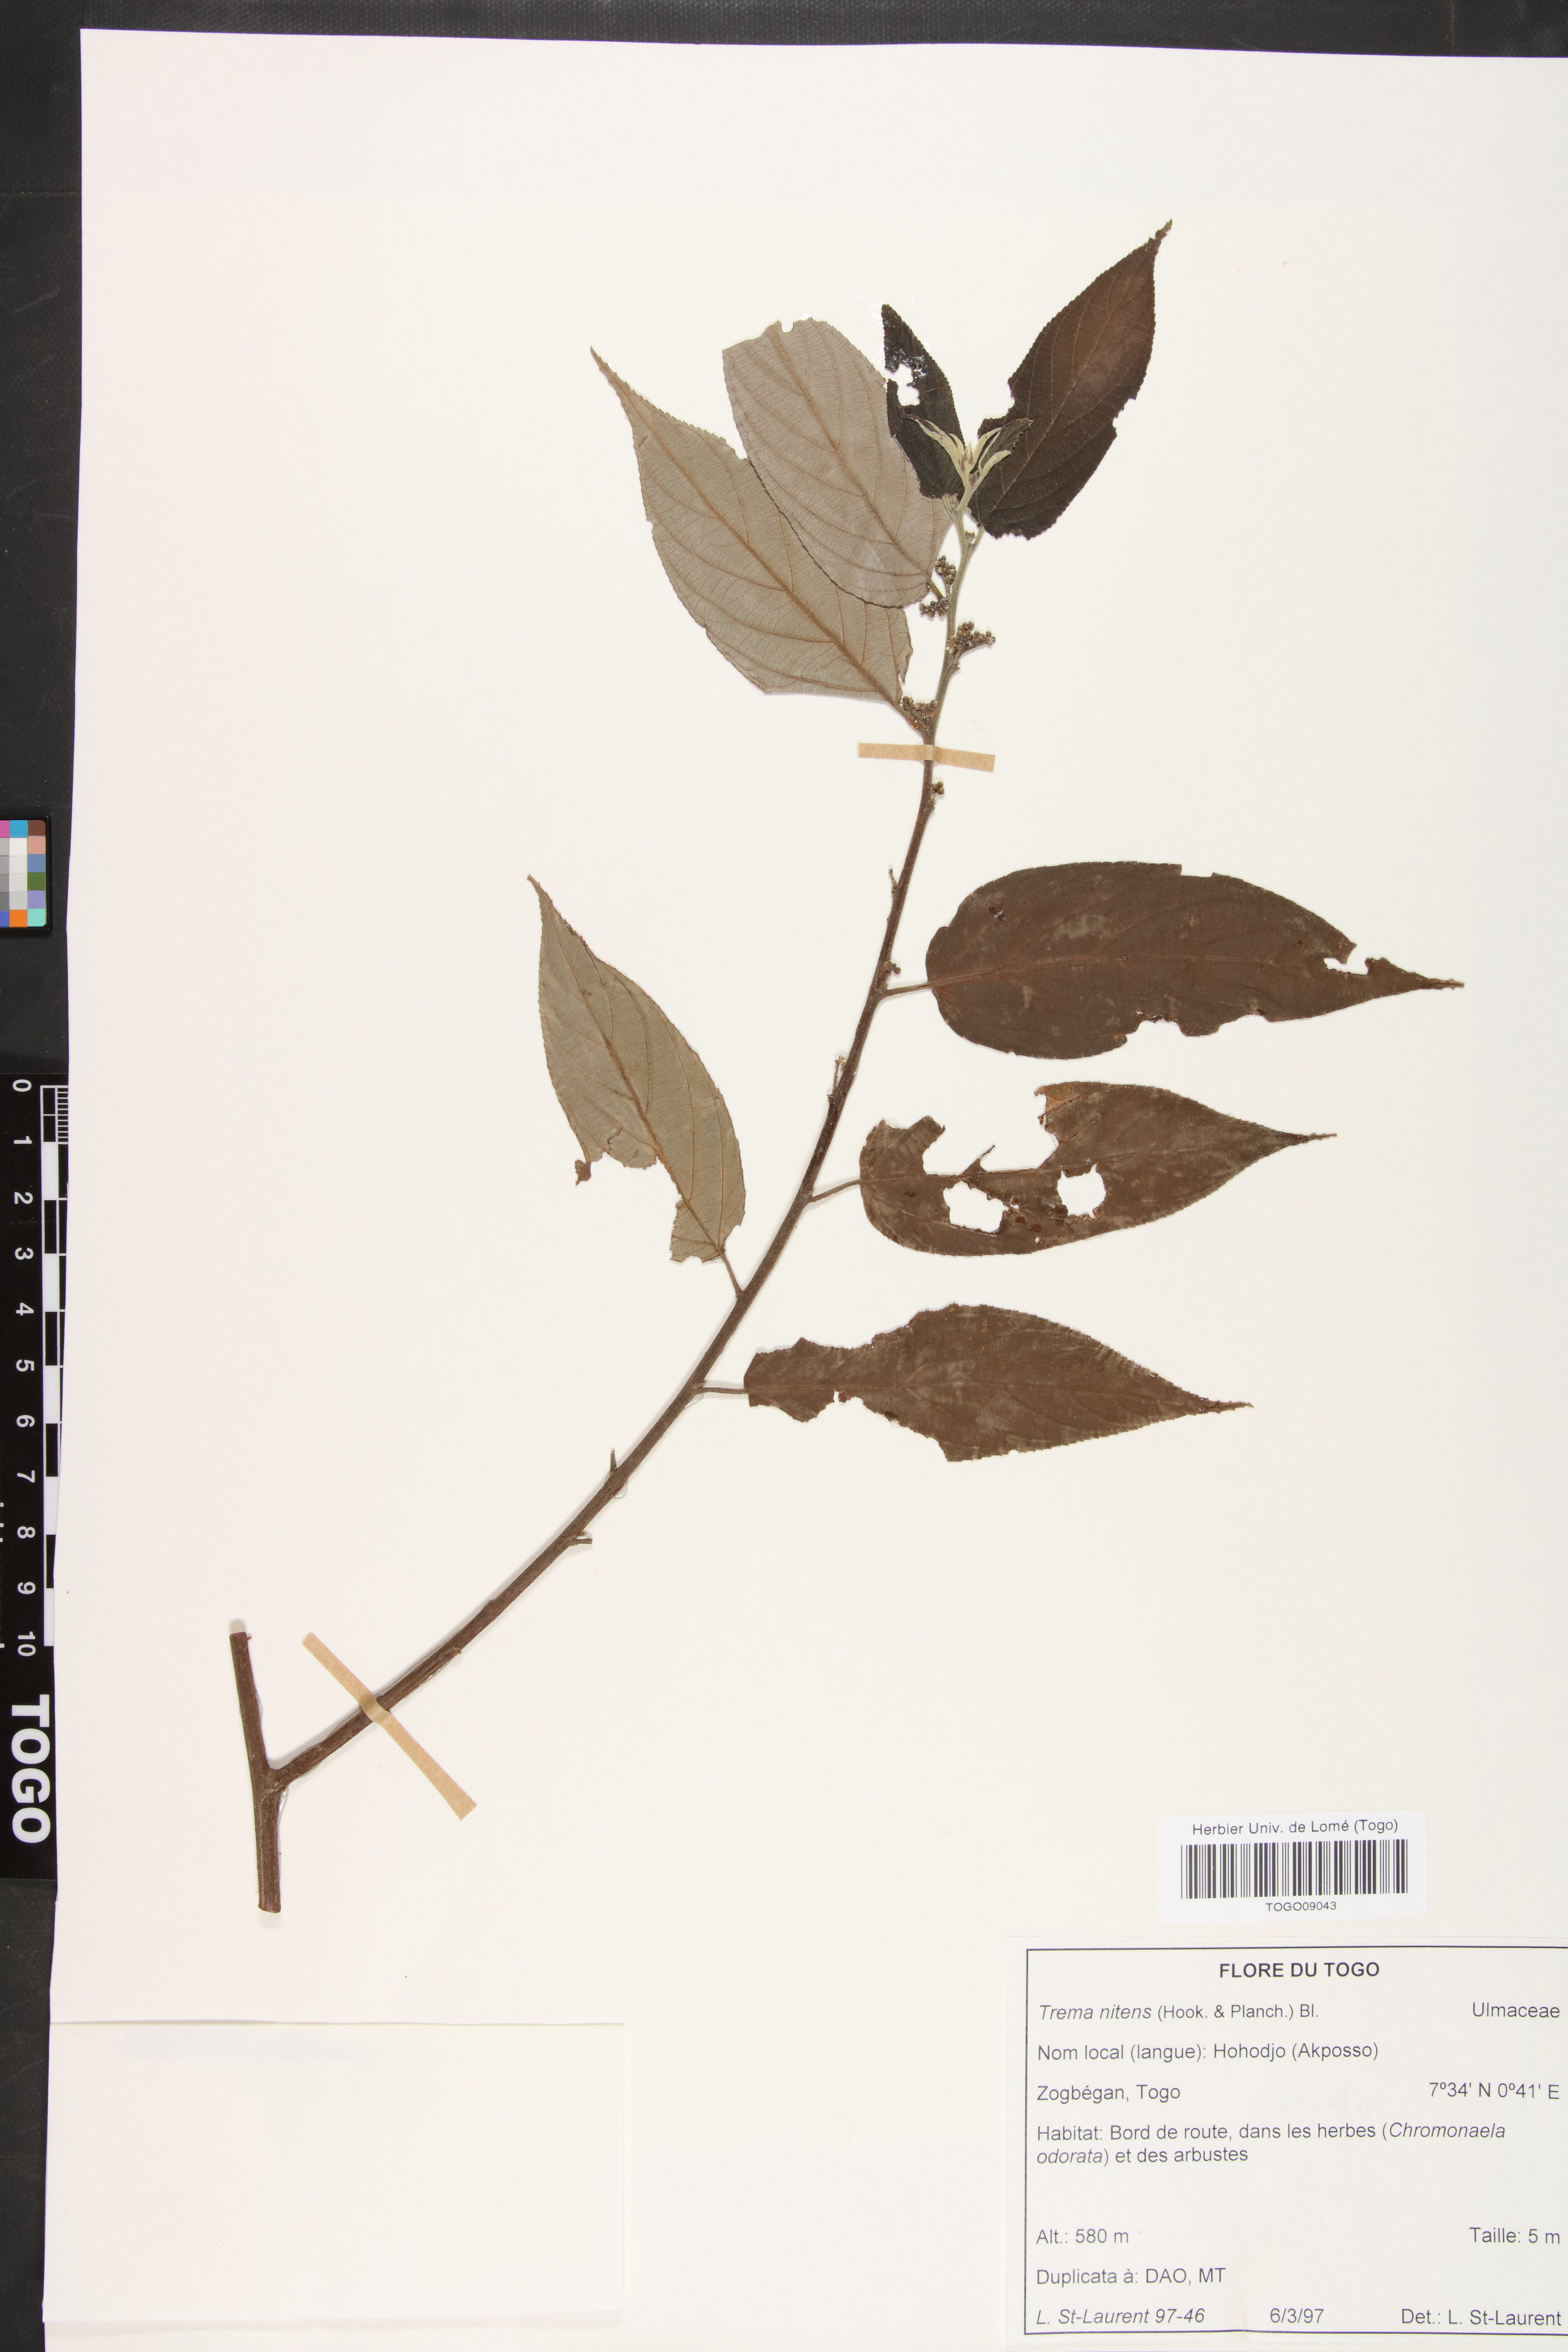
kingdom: Plantae
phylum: Tracheophyta
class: Magnoliopsida
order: Rosales
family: Cannabaceae
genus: Trema
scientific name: Trema orientale
